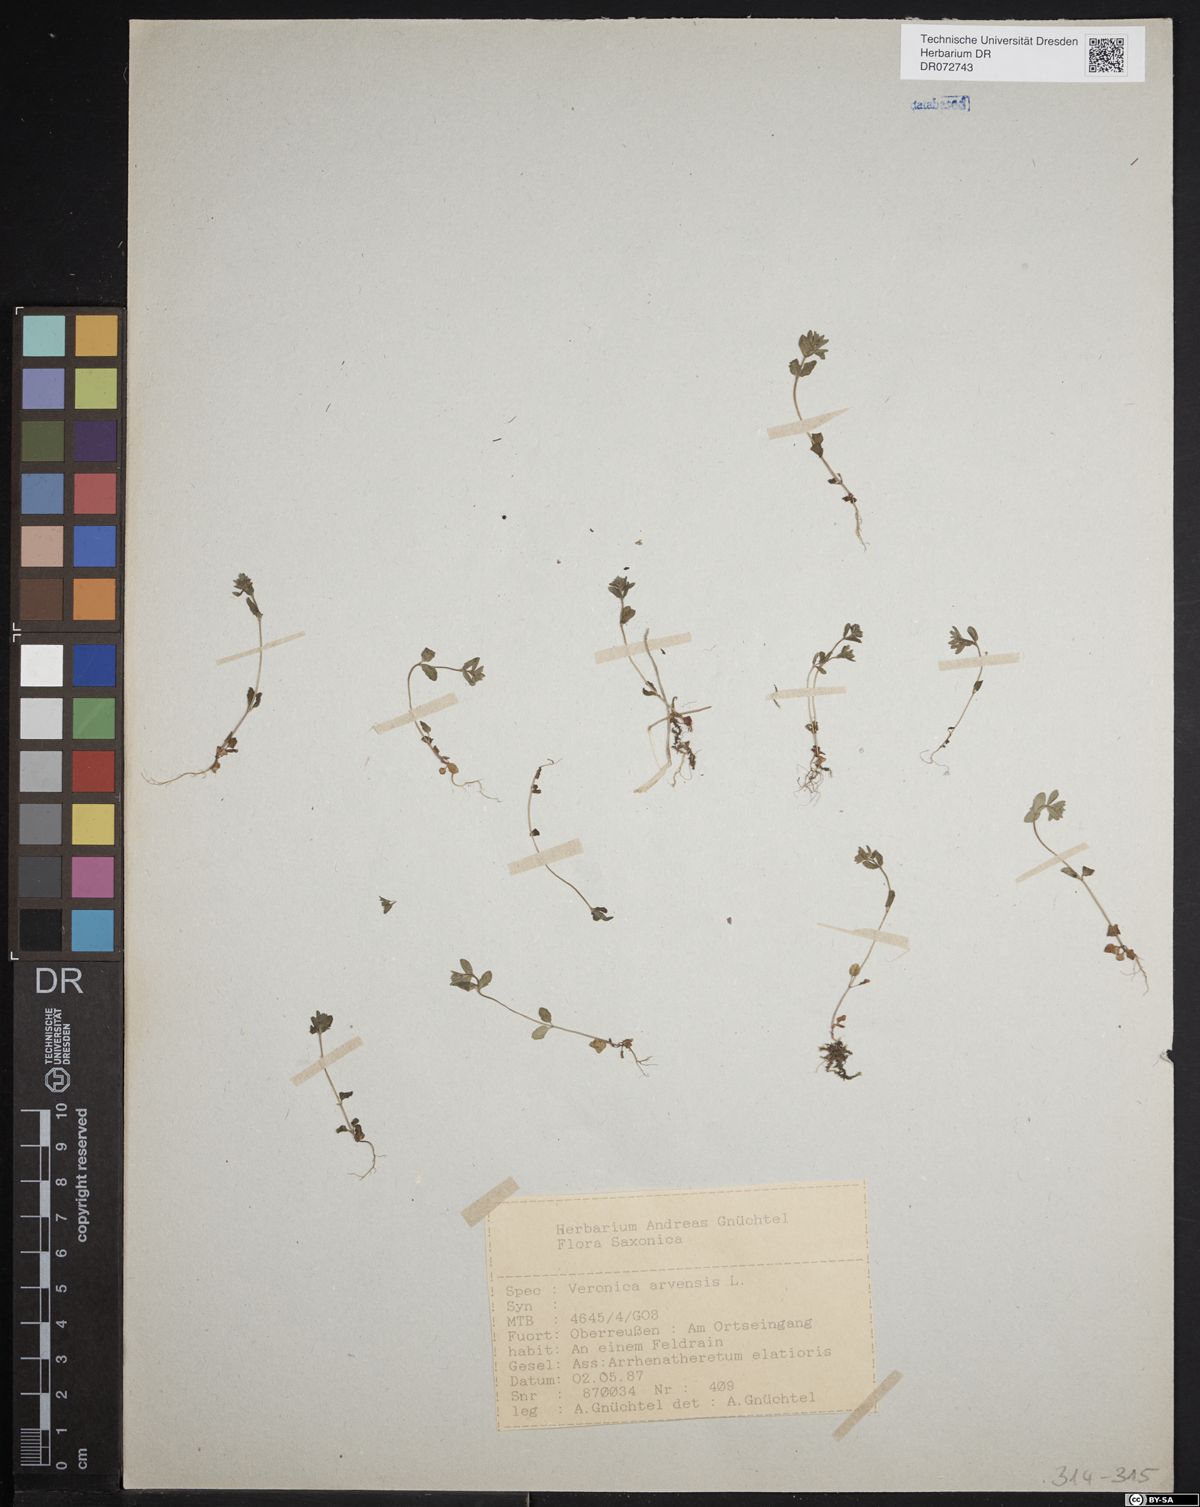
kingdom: Plantae
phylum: Tracheophyta
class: Magnoliopsida
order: Lamiales
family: Plantaginaceae
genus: Veronica
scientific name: Veronica arvensis
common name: Corn speedwell
